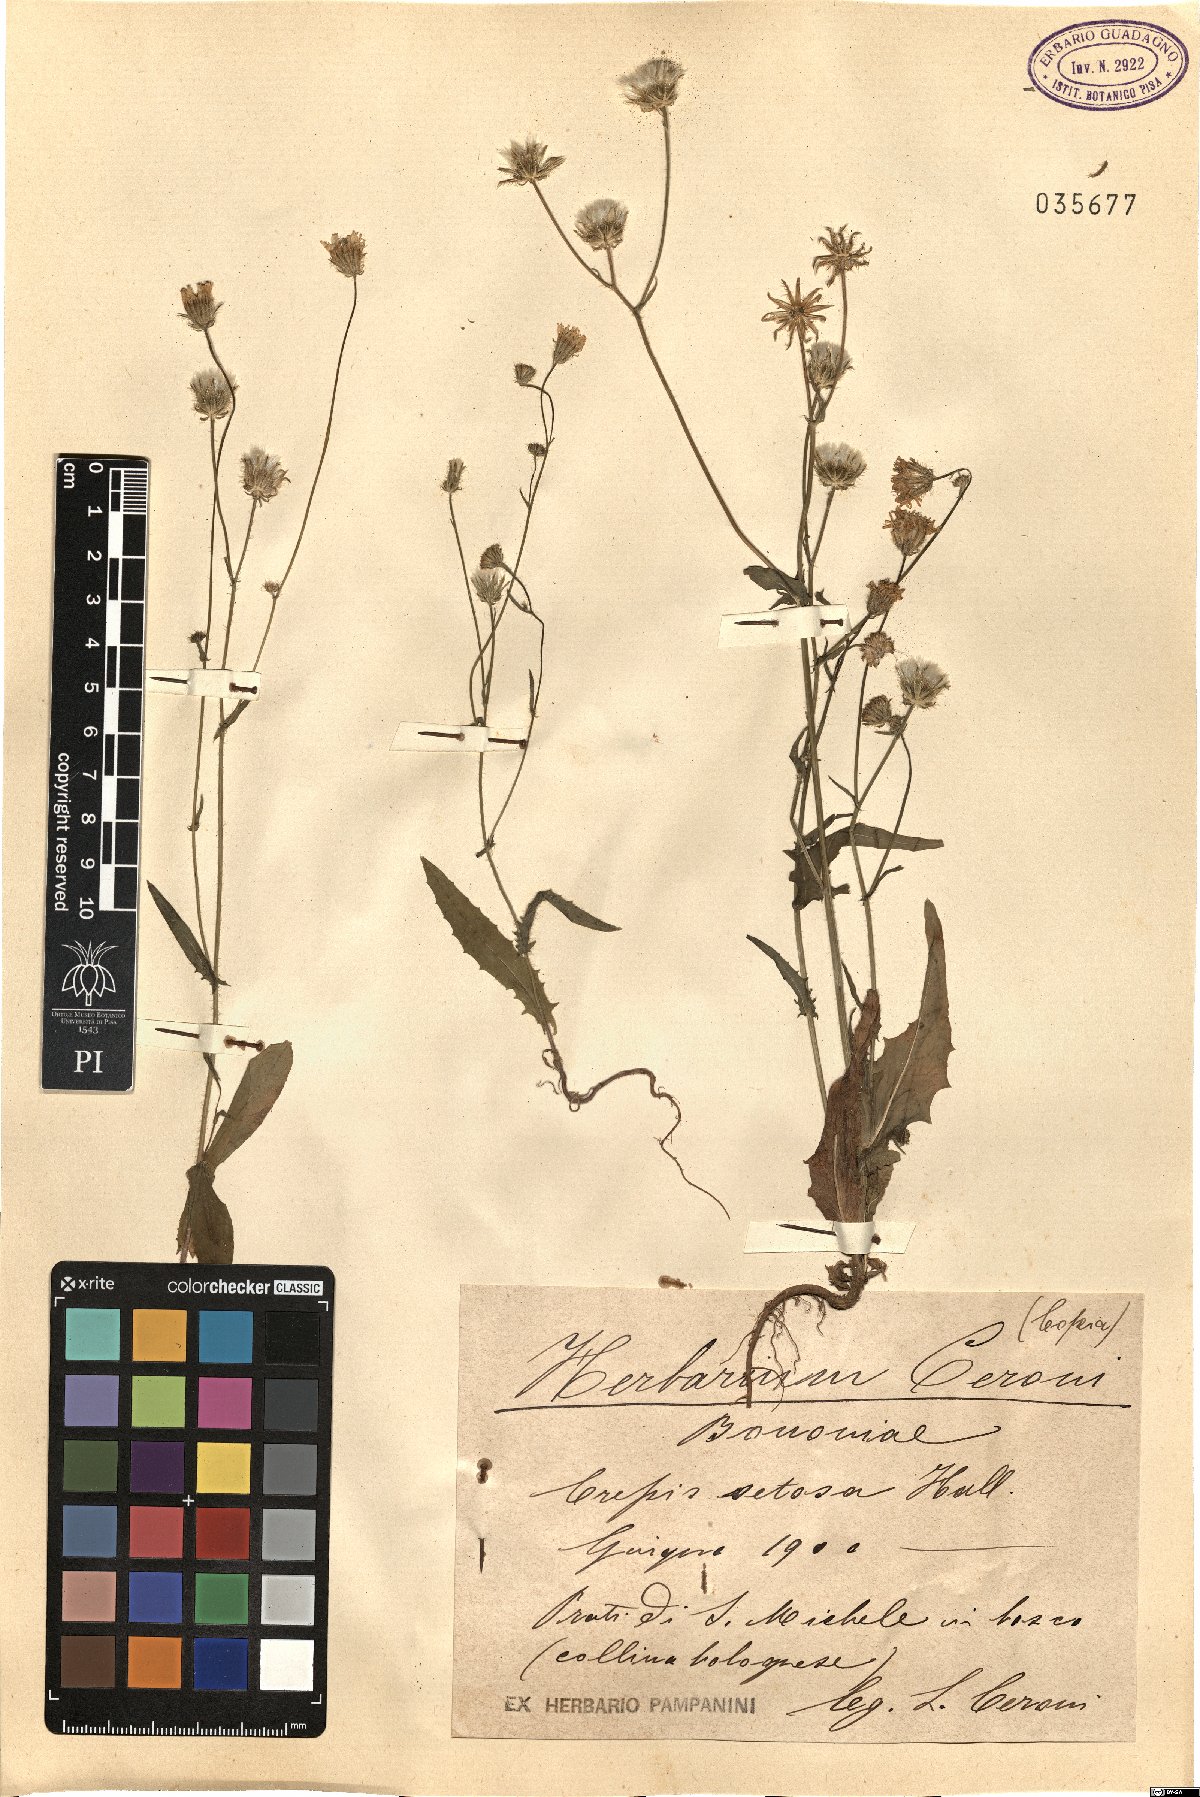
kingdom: Plantae
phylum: Tracheophyta
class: Magnoliopsida
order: Asterales
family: Asteraceae
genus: Crepis
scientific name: Crepis setosa
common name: Bristly hawk's-beard
